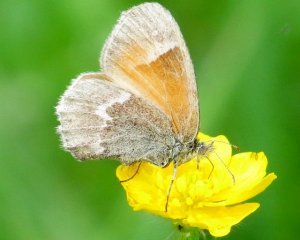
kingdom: Animalia
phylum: Arthropoda
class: Insecta
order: Lepidoptera
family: Nymphalidae
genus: Coenonympha
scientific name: Coenonympha tullia
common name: Large Heath
